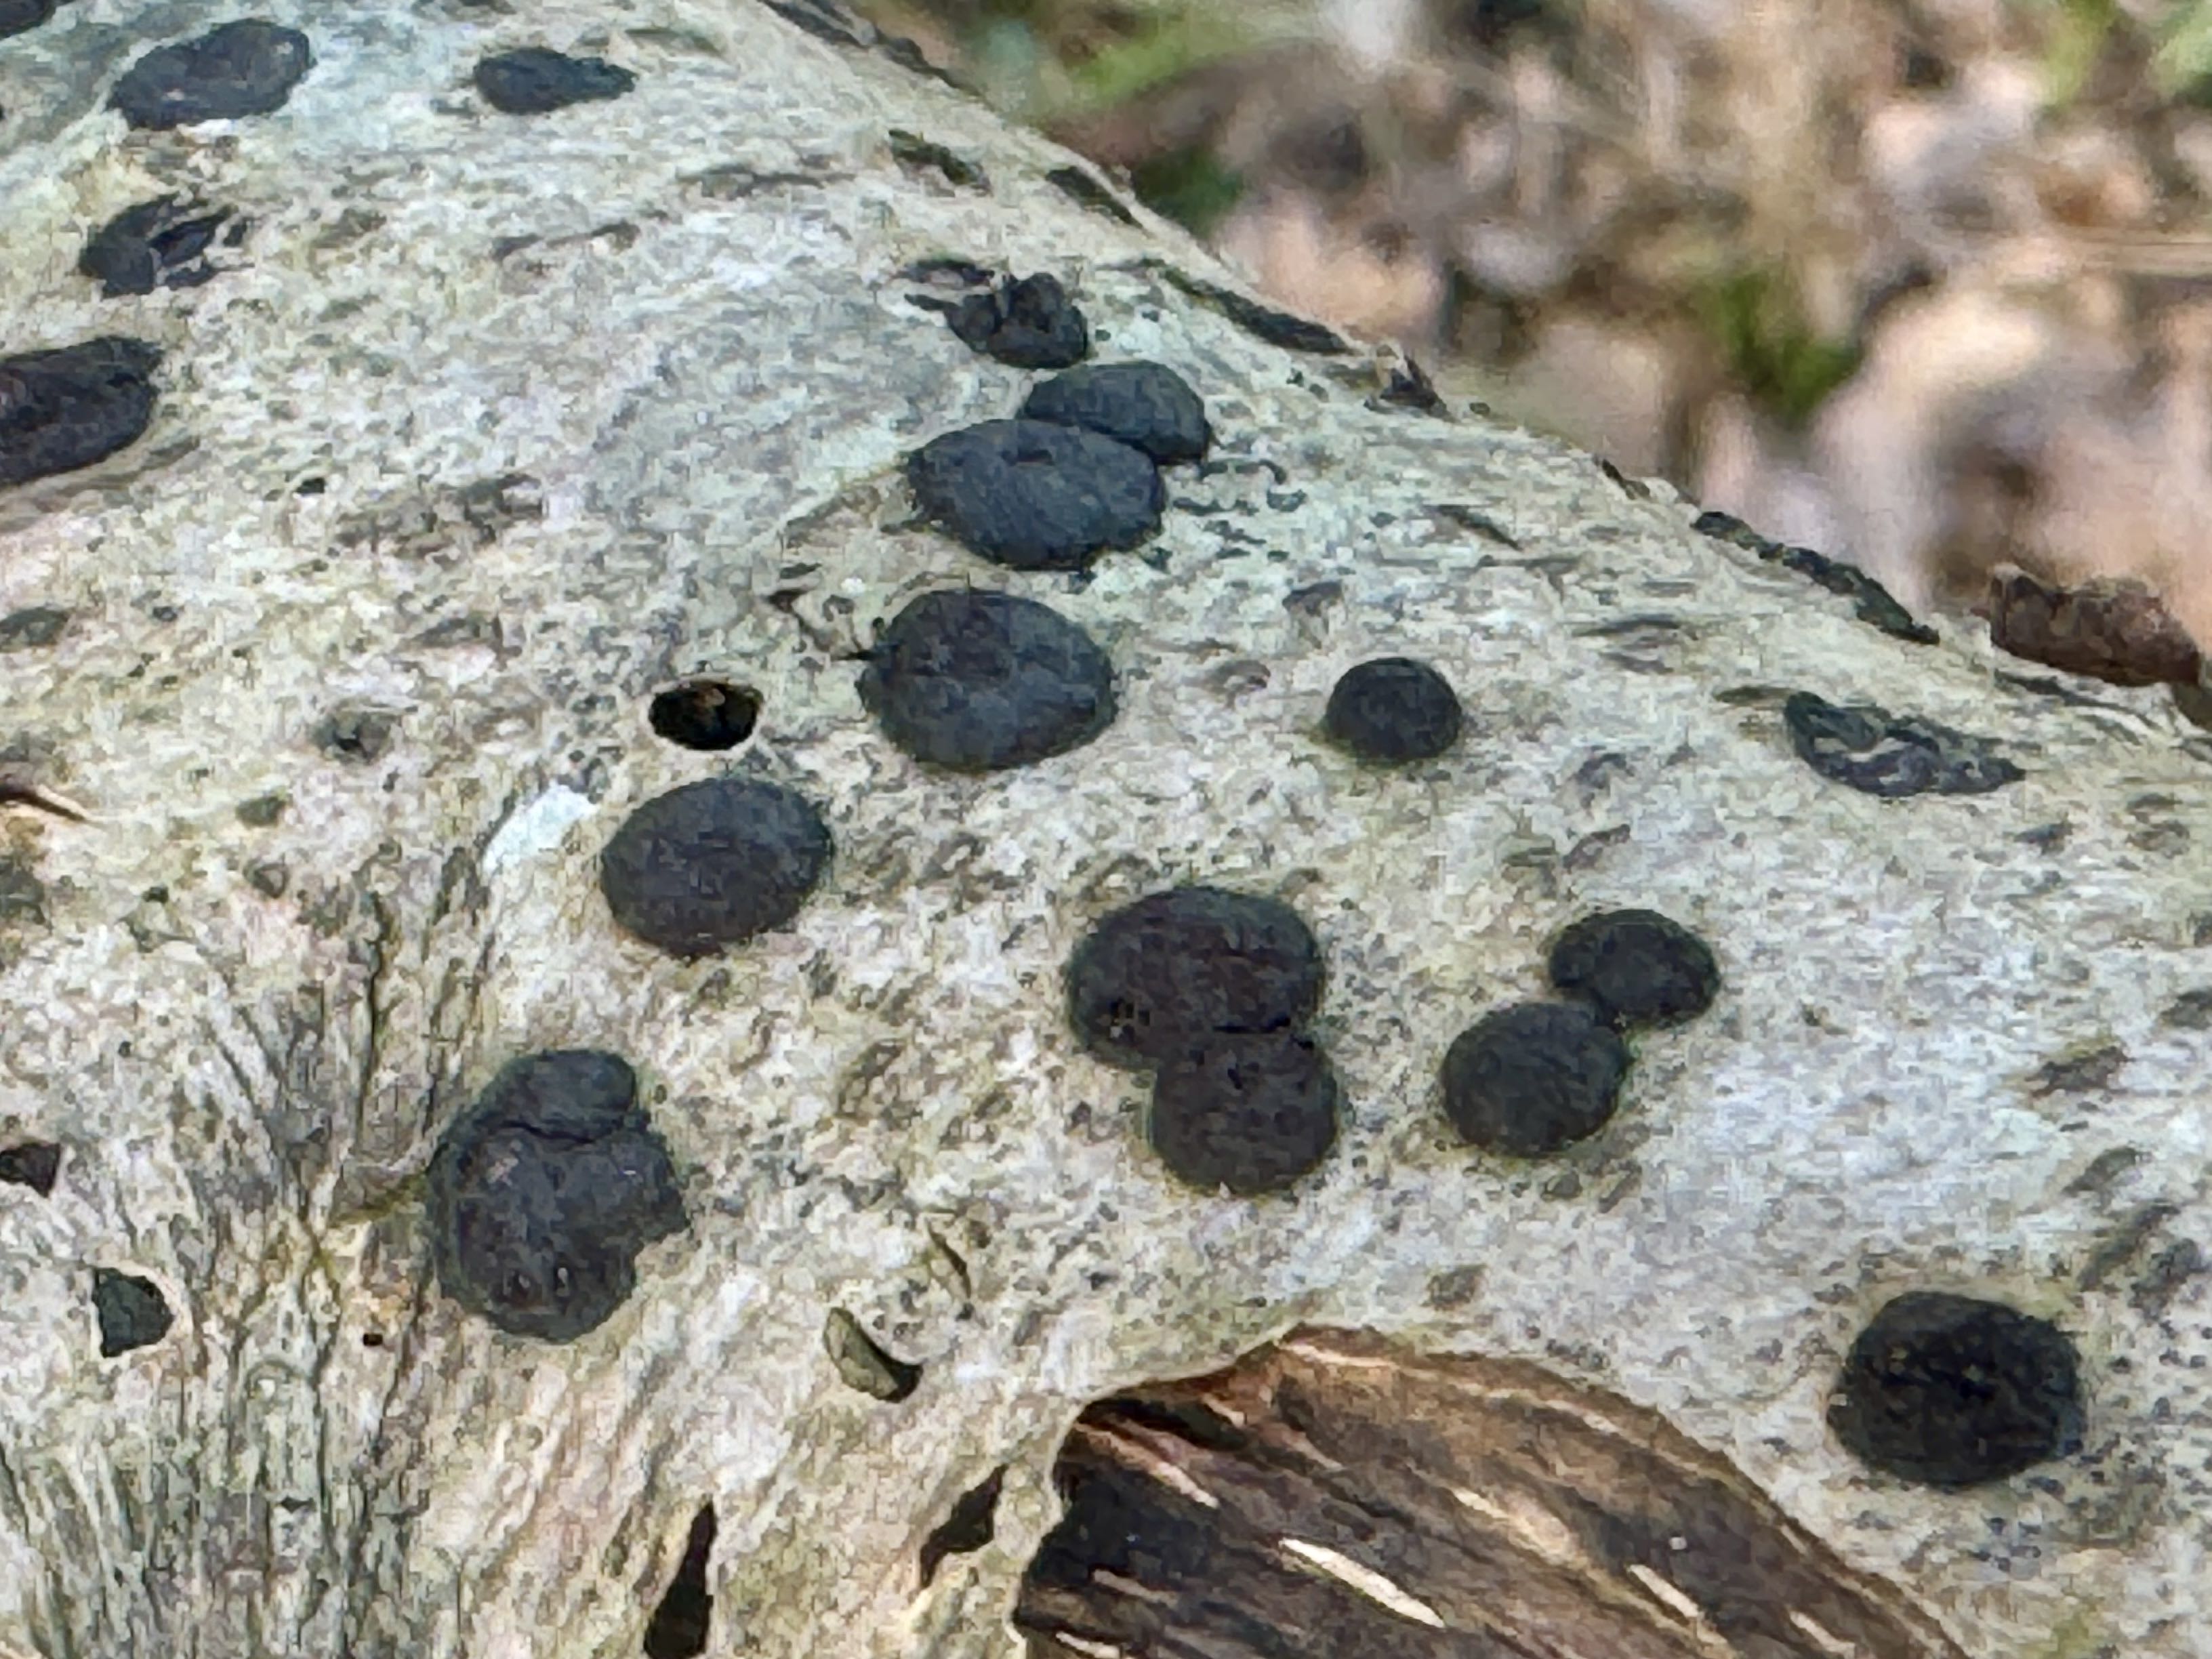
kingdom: Fungi
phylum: Ascomycota
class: Sordariomycetes
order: Xylariales
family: Hypoxylaceae
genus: Hypoxylon
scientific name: Hypoxylon fuscum
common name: kegleformet kulbær
